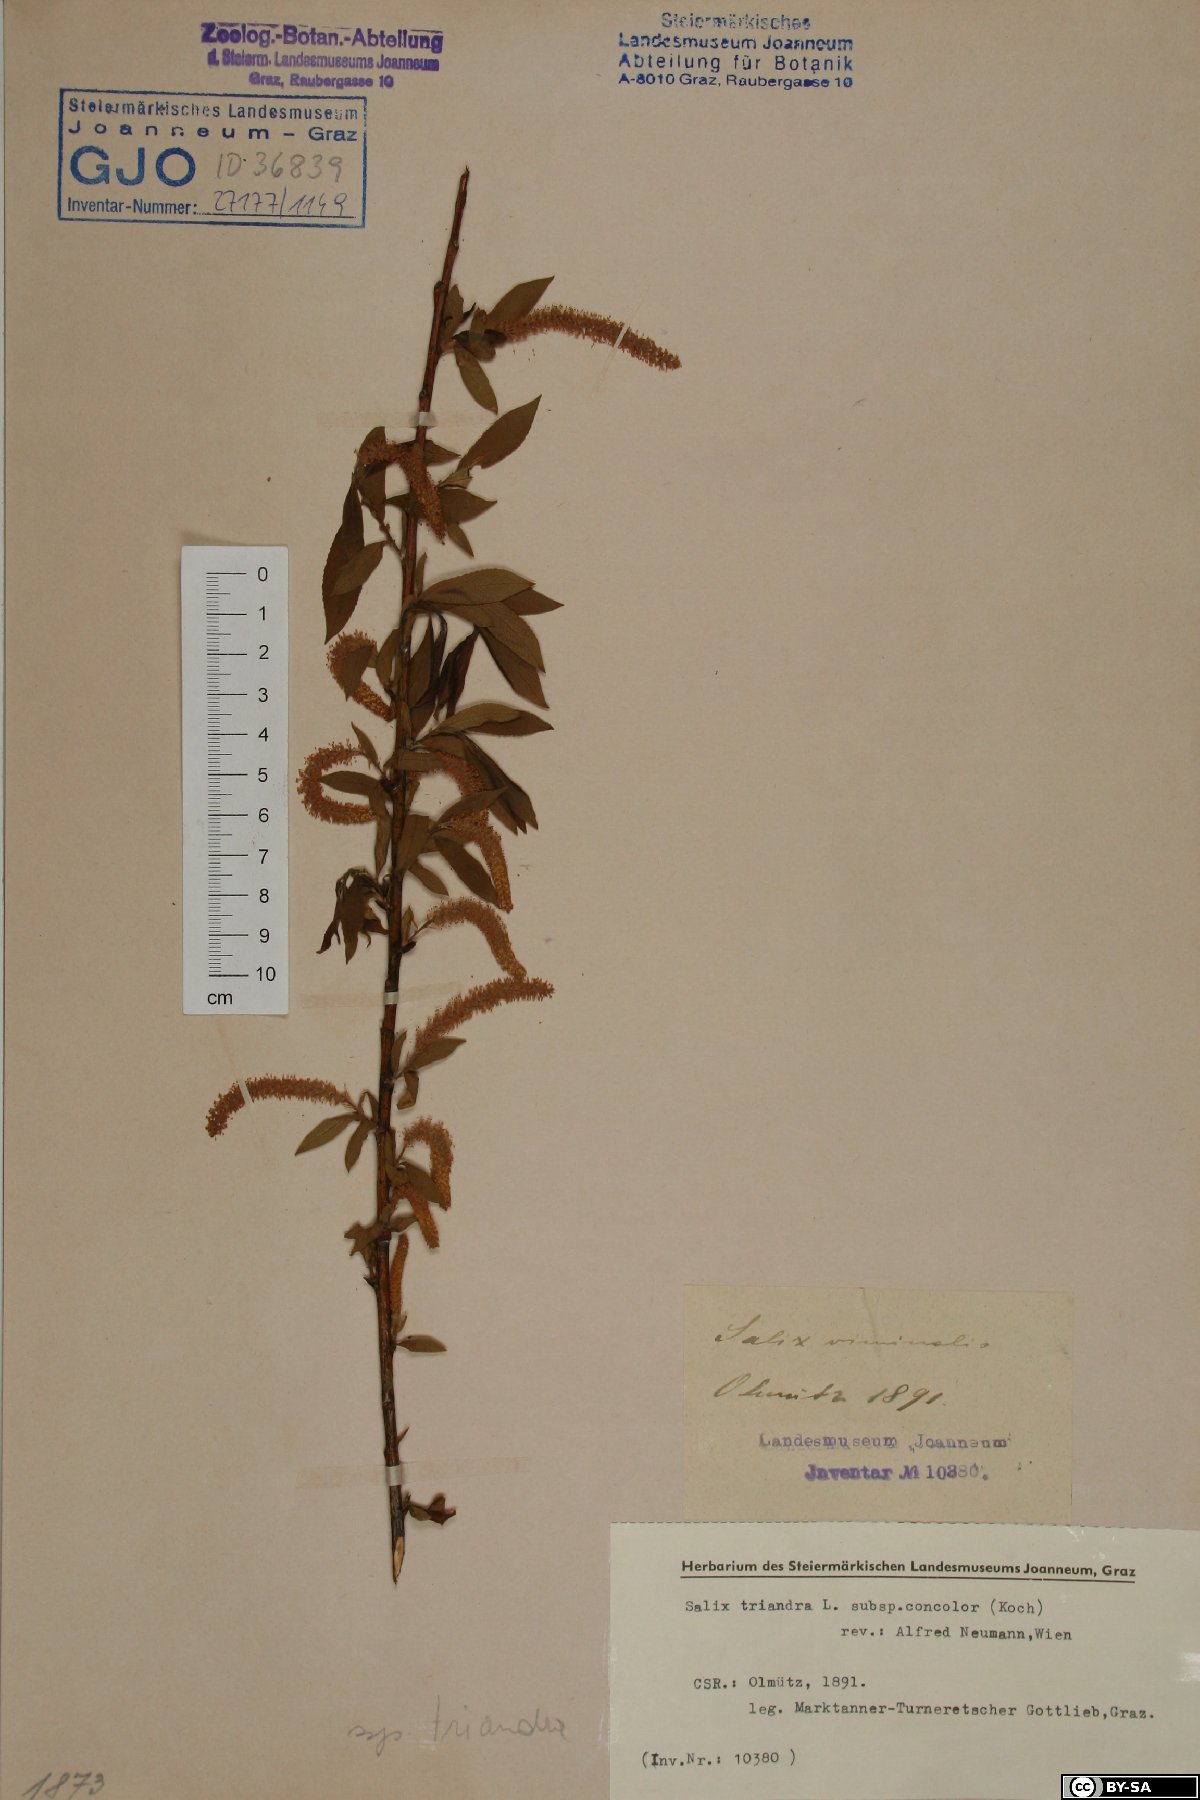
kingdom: Plantae
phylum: Tracheophyta
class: Magnoliopsida
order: Malpighiales
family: Salicaceae
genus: Salix
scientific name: Salix triandra
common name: Almond willow
